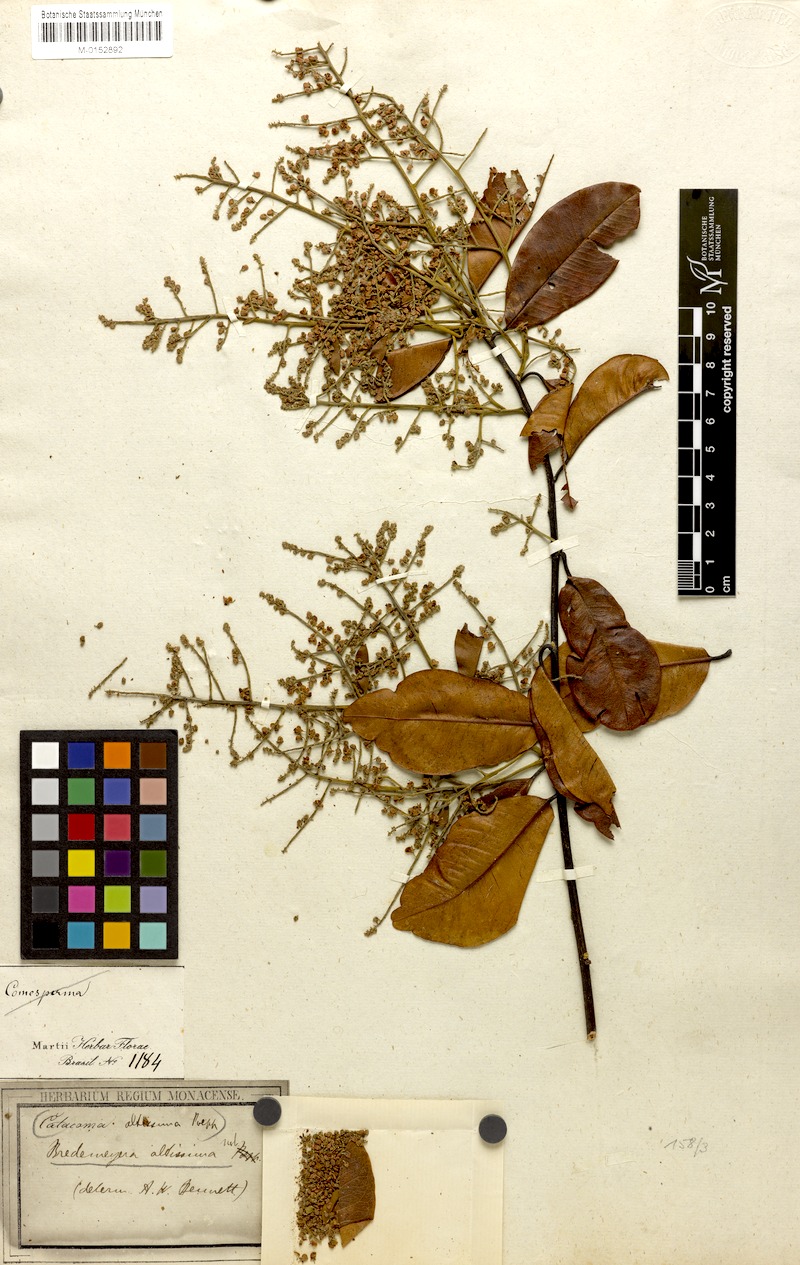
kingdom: Plantae
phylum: Tracheophyta
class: Magnoliopsida
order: Fabales
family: Polygalaceae
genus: Bredemeyera
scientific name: Bredemeyera divaricata
